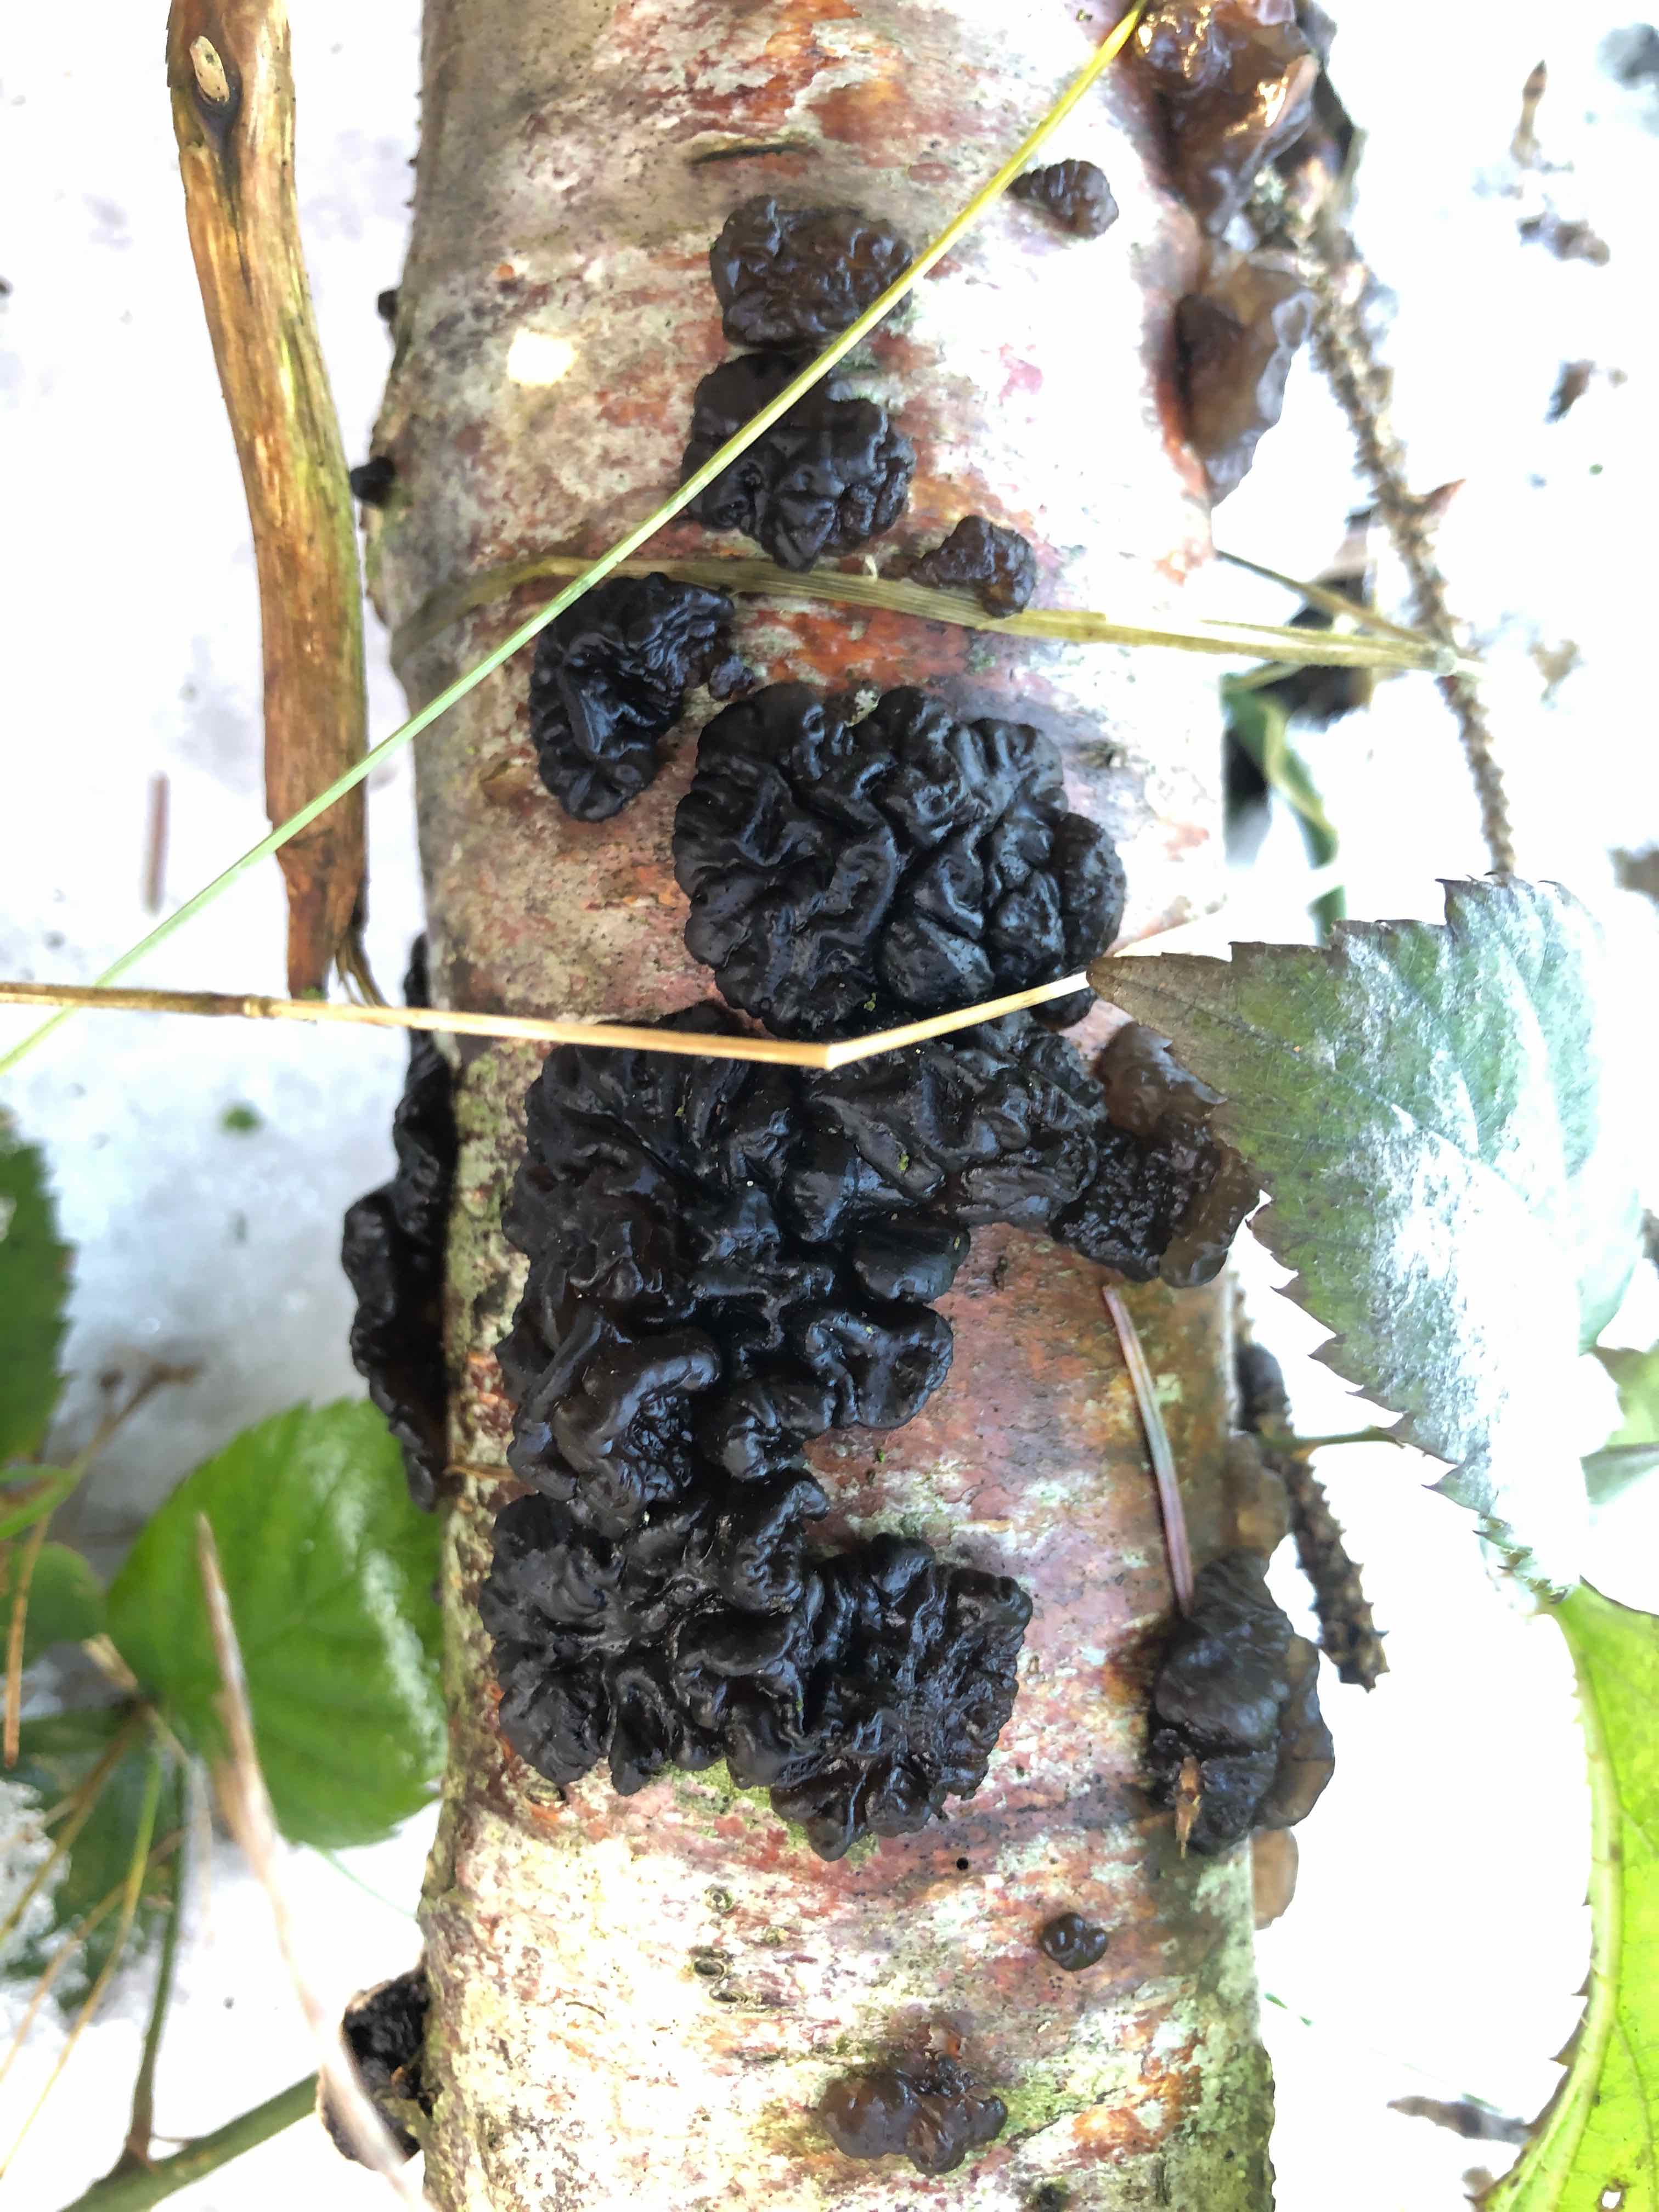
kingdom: Fungi
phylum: Basidiomycota
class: Agaricomycetes
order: Auriculariales
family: Auriculariaceae
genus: Exidia
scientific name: Exidia nigricans
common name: almindelig bævretop
